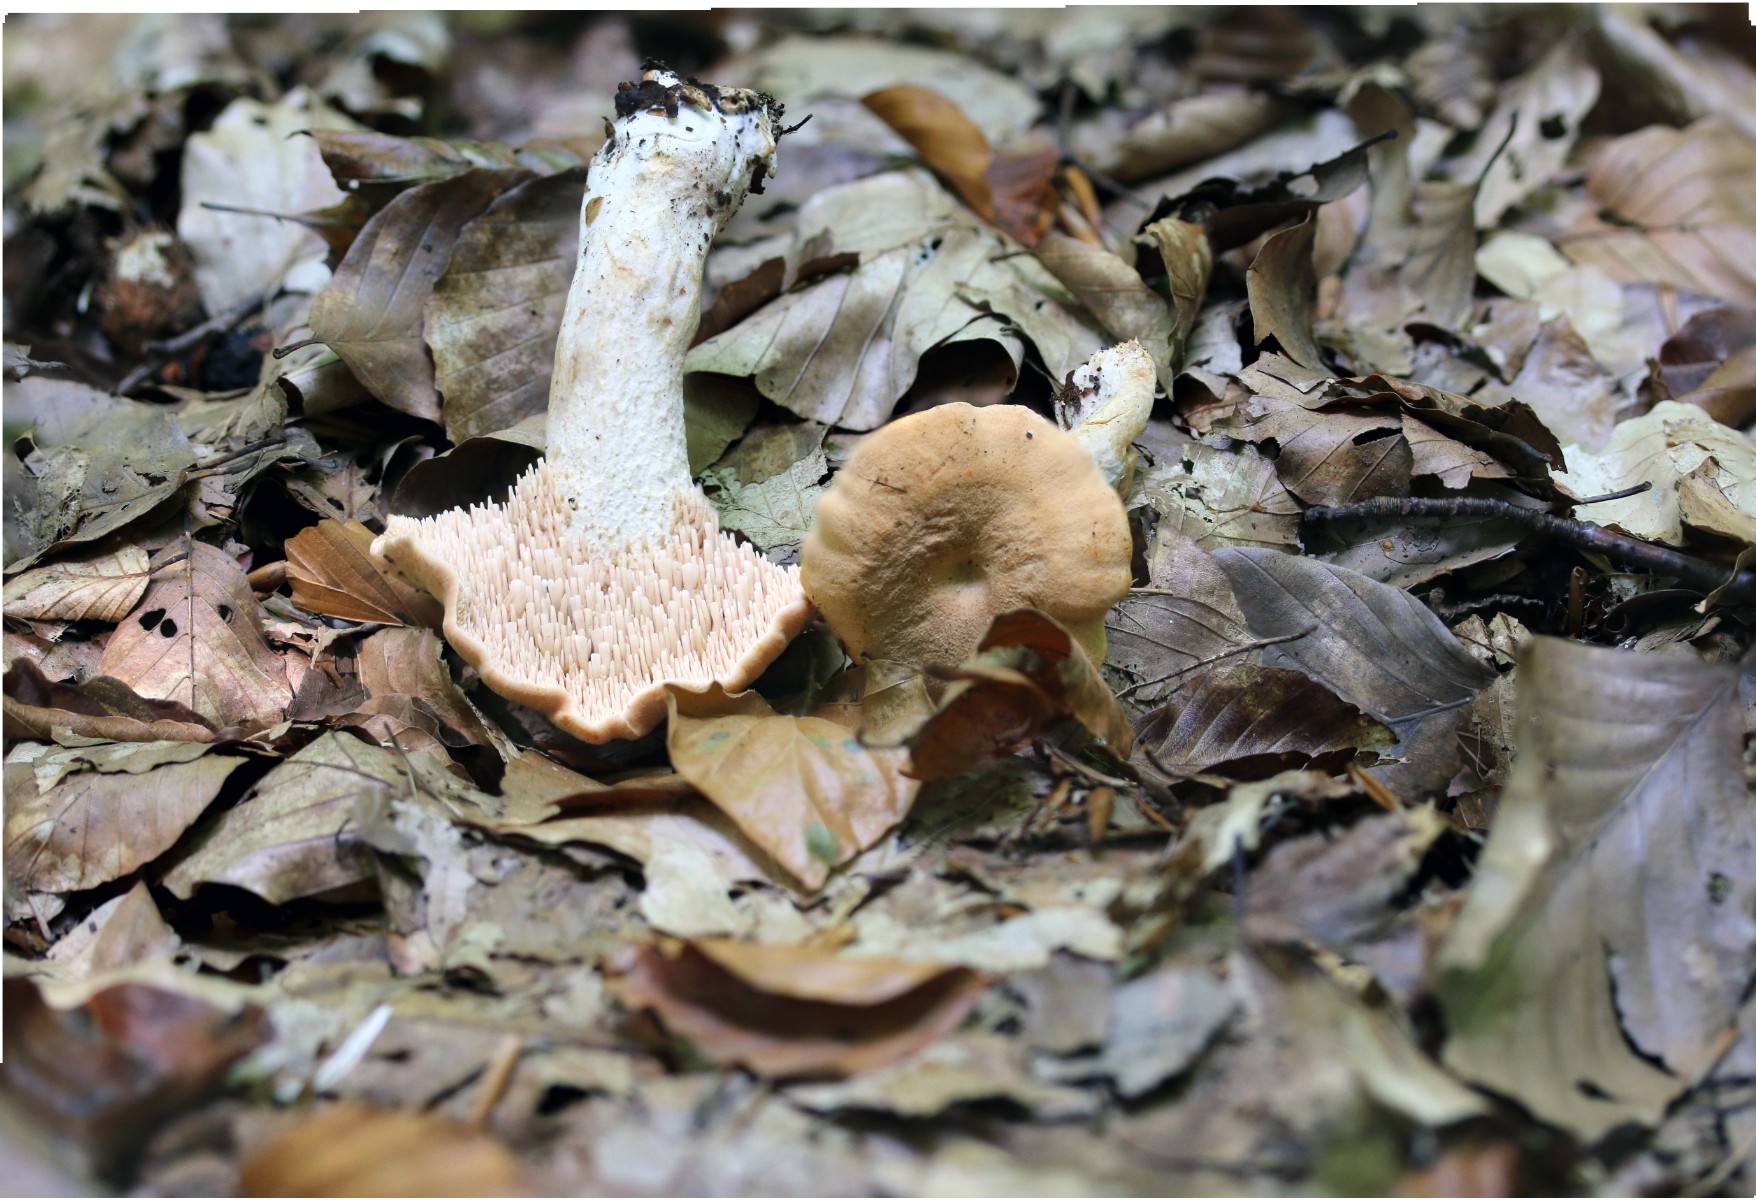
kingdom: Fungi
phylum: Basidiomycota
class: Agaricomycetes
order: Cantharellales
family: Hydnaceae
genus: Hydnum
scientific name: Hydnum umbilicatum
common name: navle-pigsvamp
